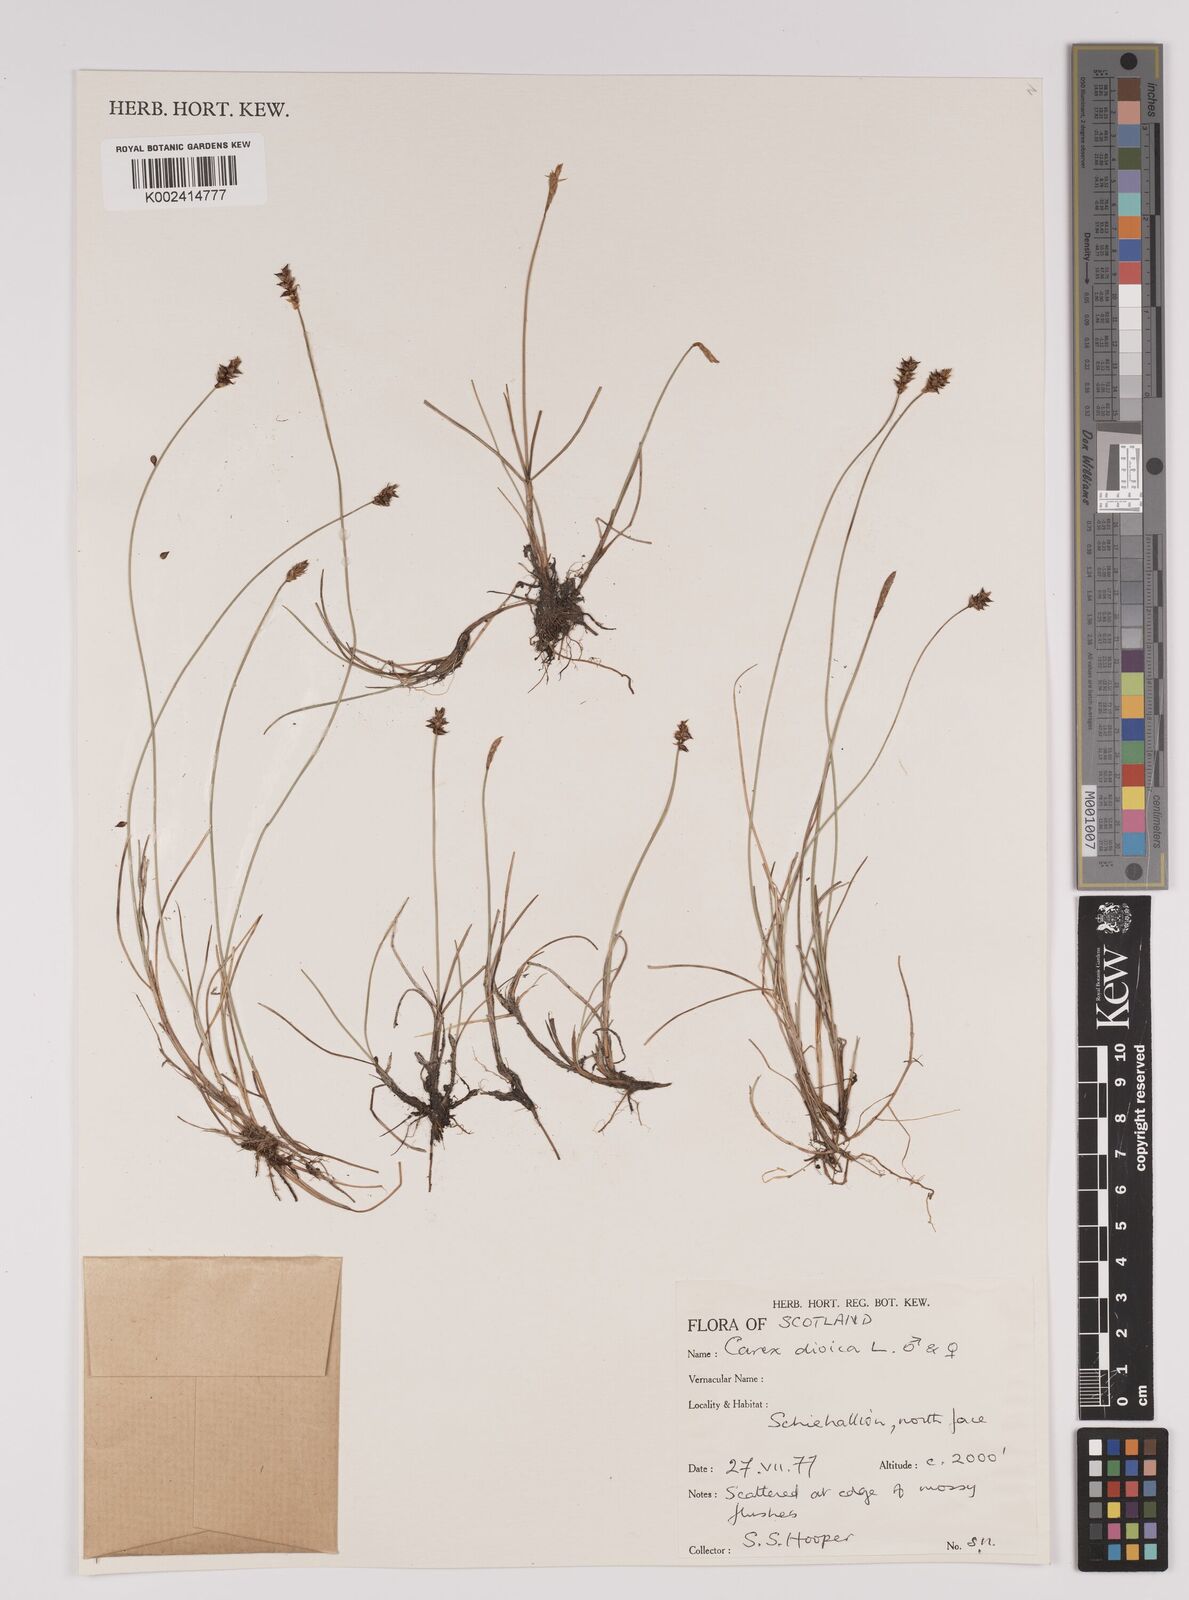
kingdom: Plantae
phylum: Tracheophyta
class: Liliopsida
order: Poales
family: Cyperaceae
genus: Carex
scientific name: Carex dioica
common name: Dioecious sedge
